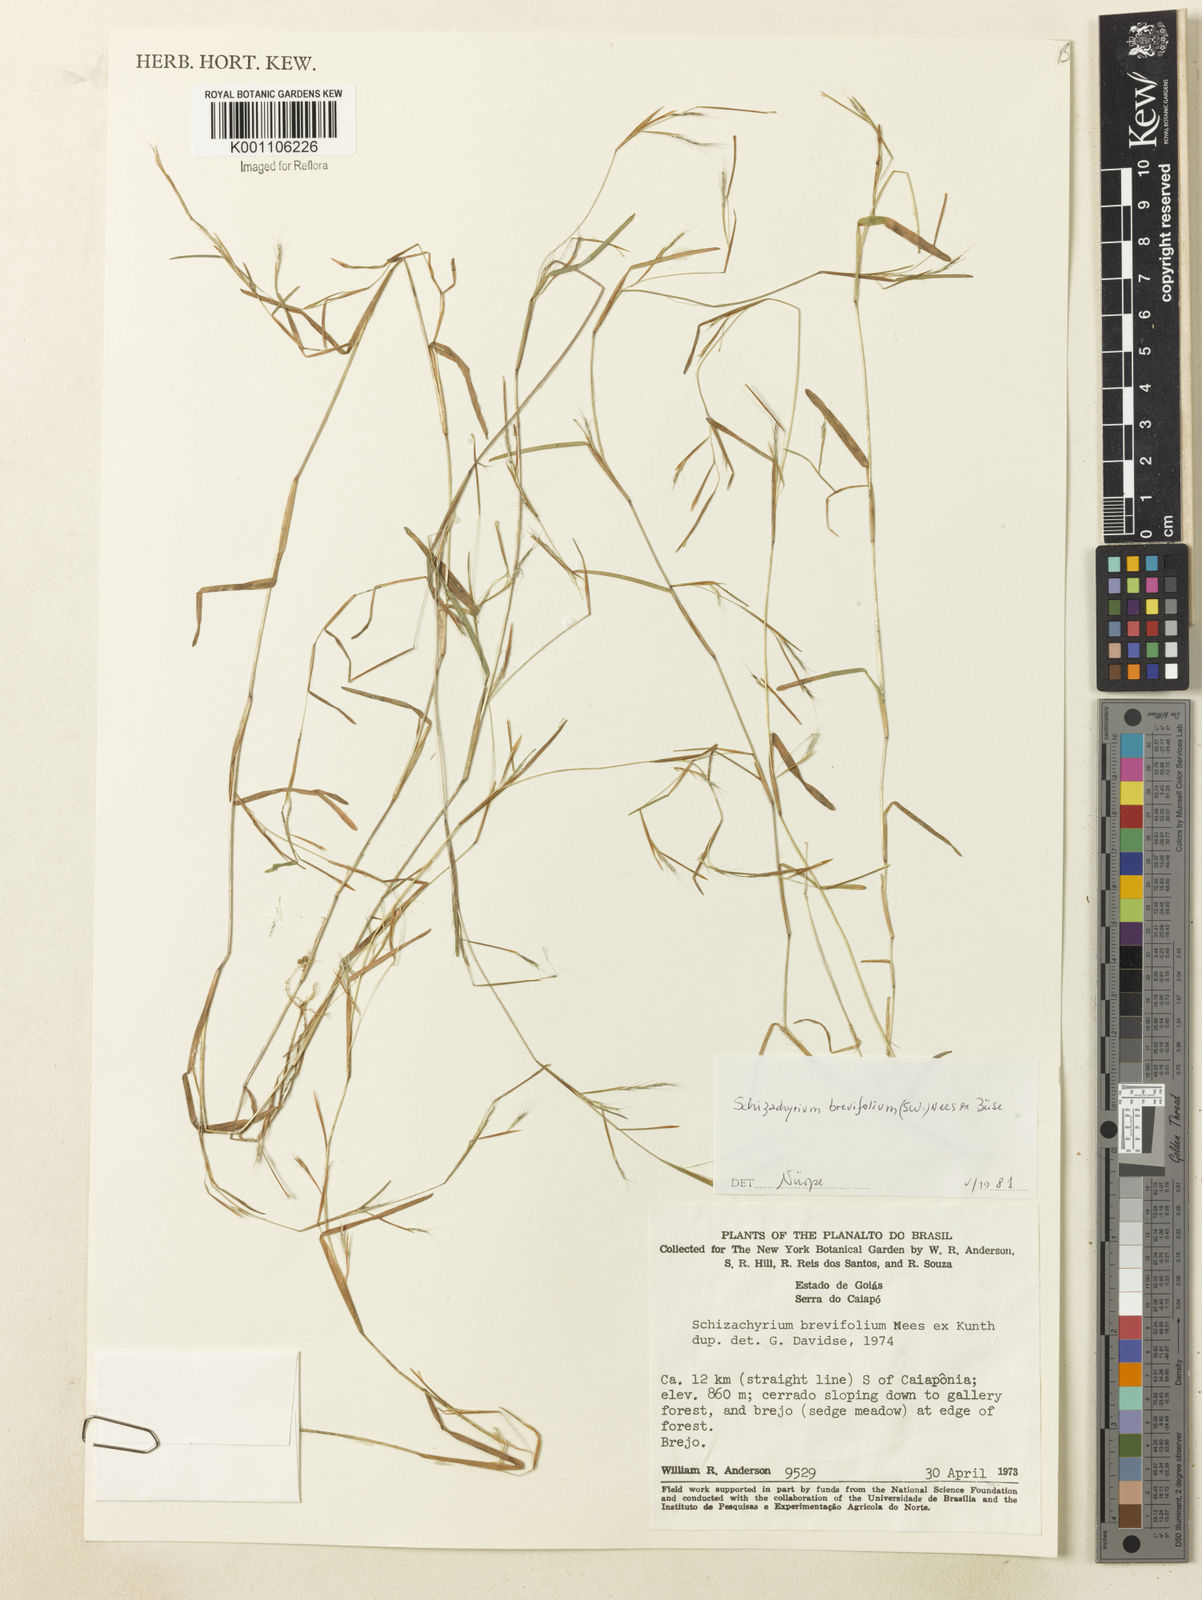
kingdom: Plantae
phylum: Tracheophyta
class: Liliopsida
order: Poales
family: Poaceae
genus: Schizachyrium
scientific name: Schizachyrium brevifolium
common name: Serillo dulce
